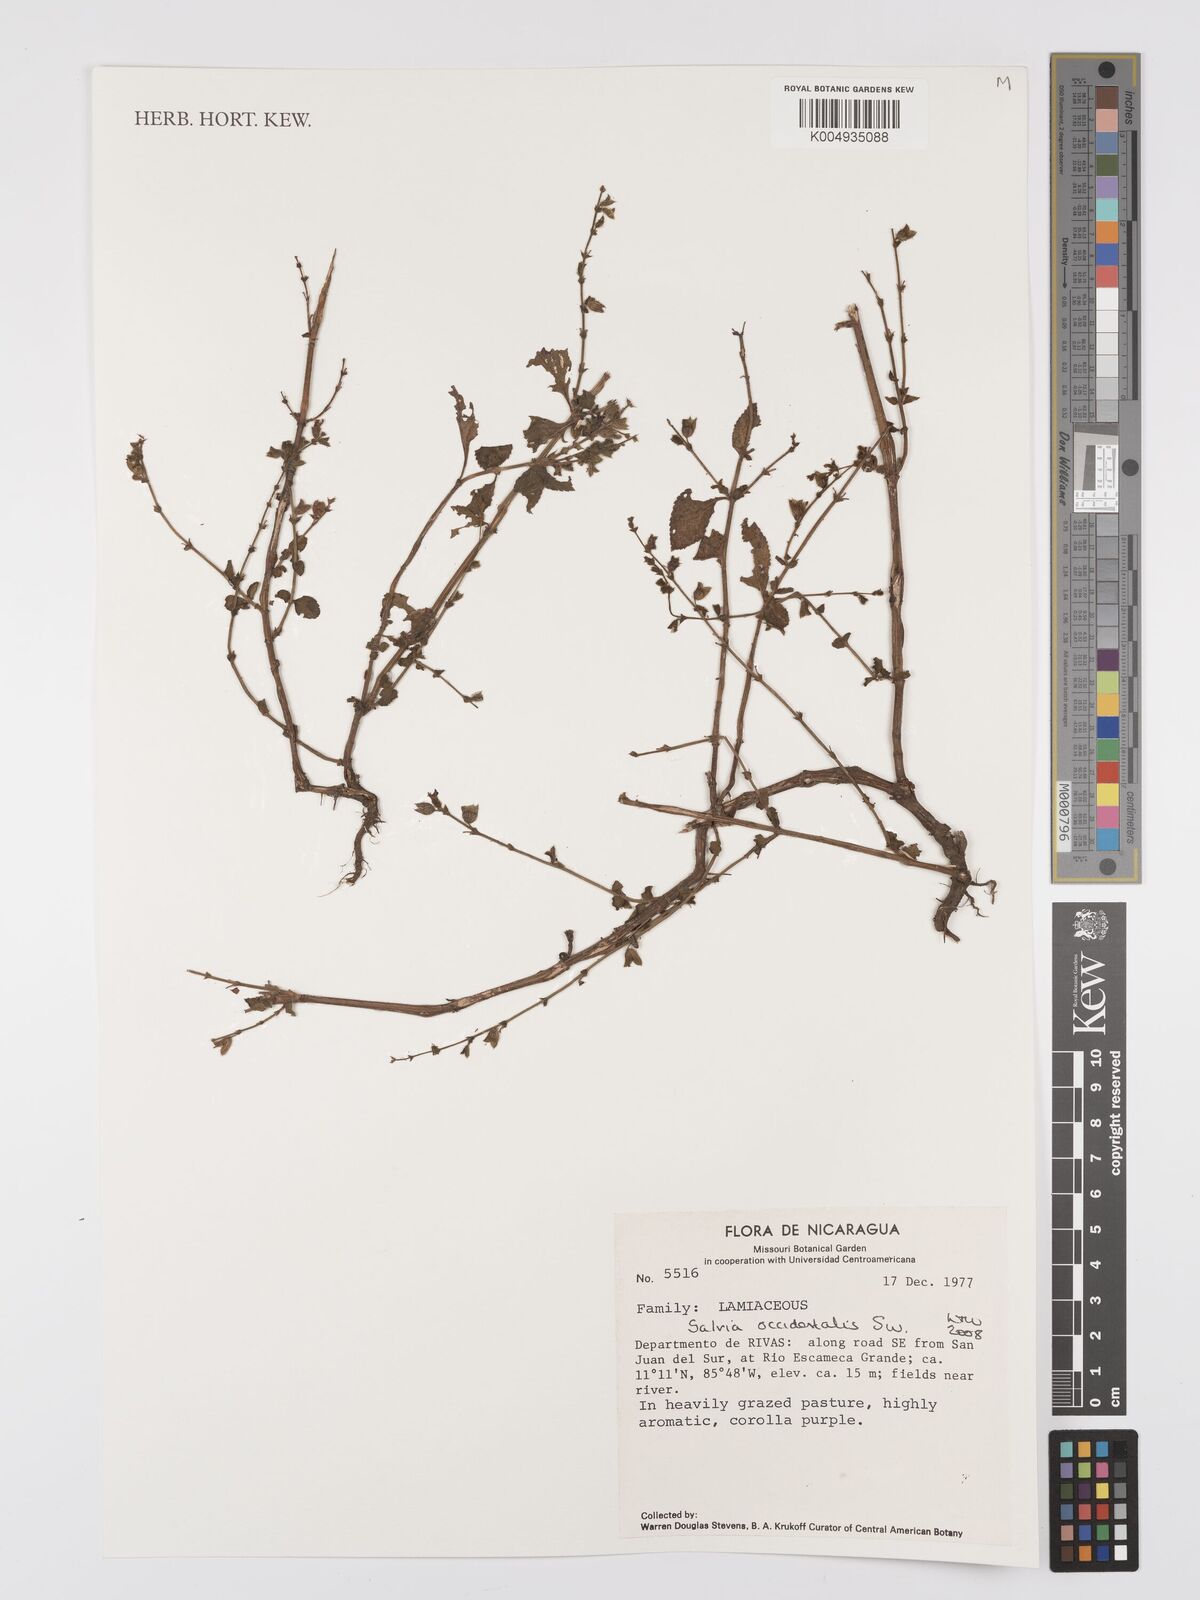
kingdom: Plantae
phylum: Tracheophyta
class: Magnoliopsida
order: Lamiales
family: Lamiaceae
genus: Salvia
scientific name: Salvia occidentalis
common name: West indian sage
